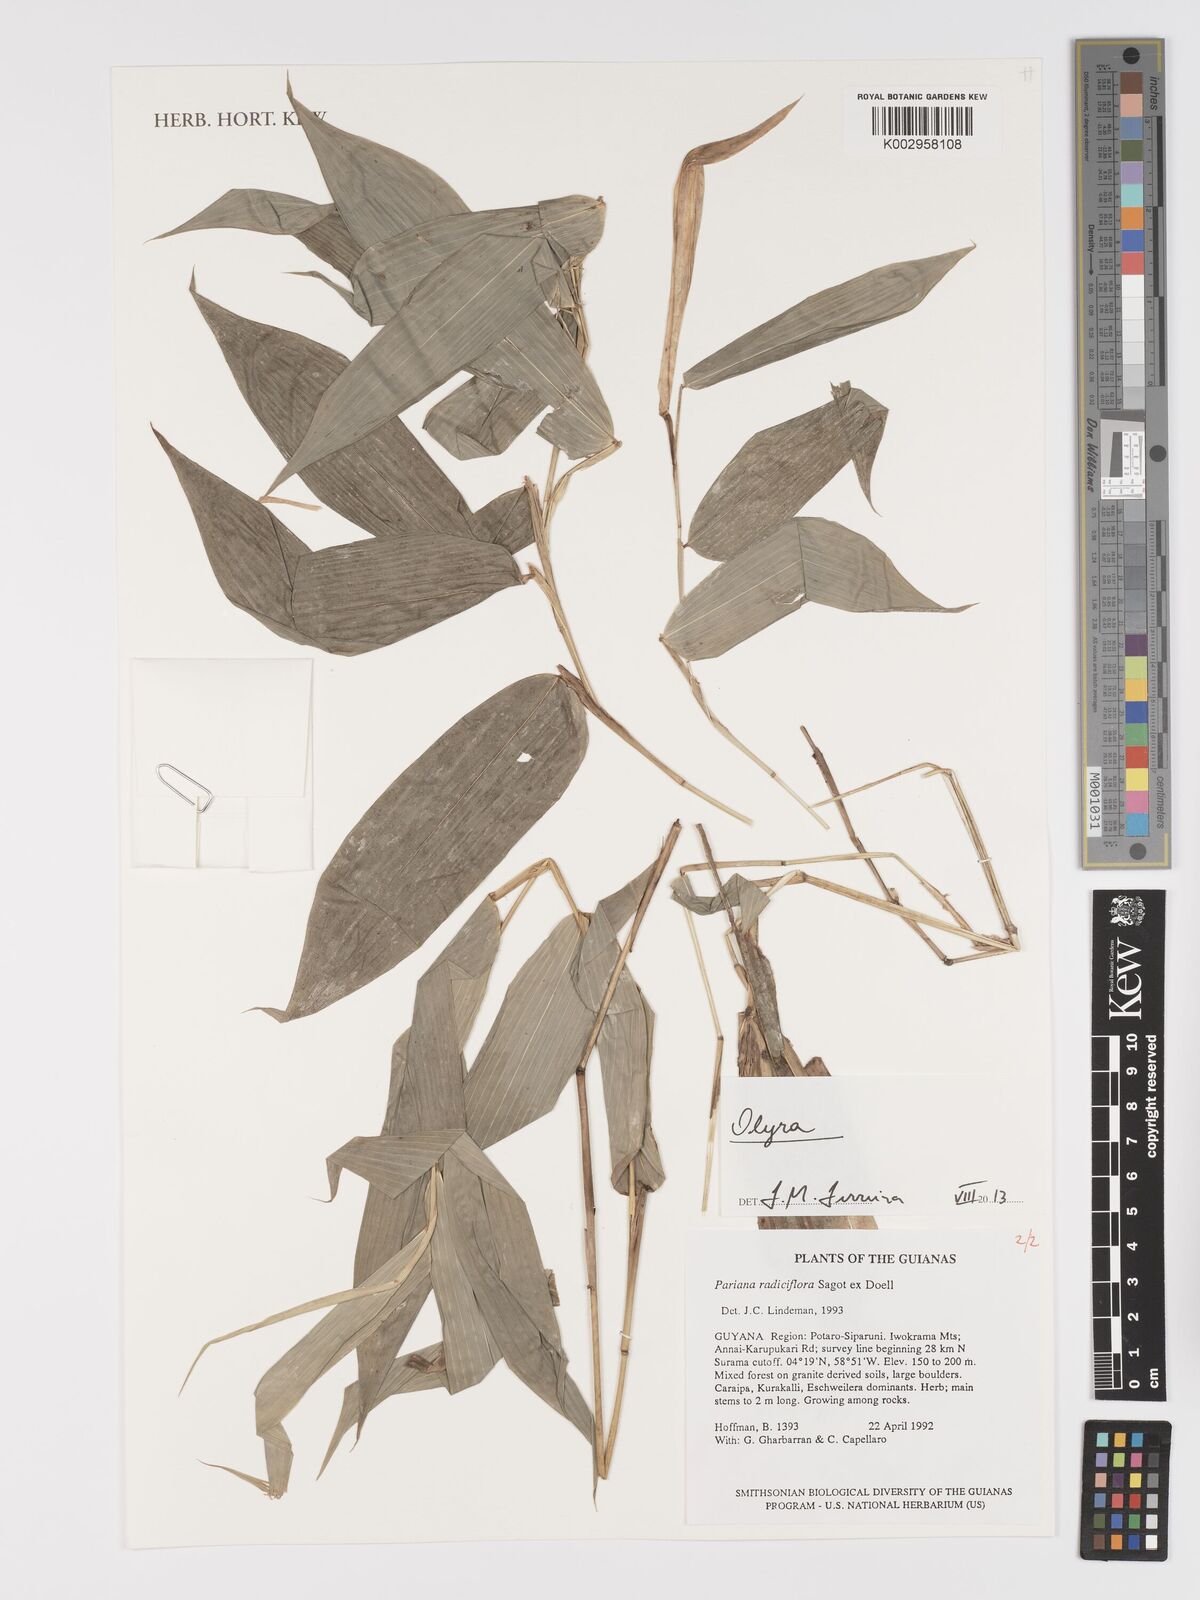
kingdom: Plantae
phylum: Tracheophyta
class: Liliopsida
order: Poales
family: Poaceae
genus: Olyra
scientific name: Olyra
